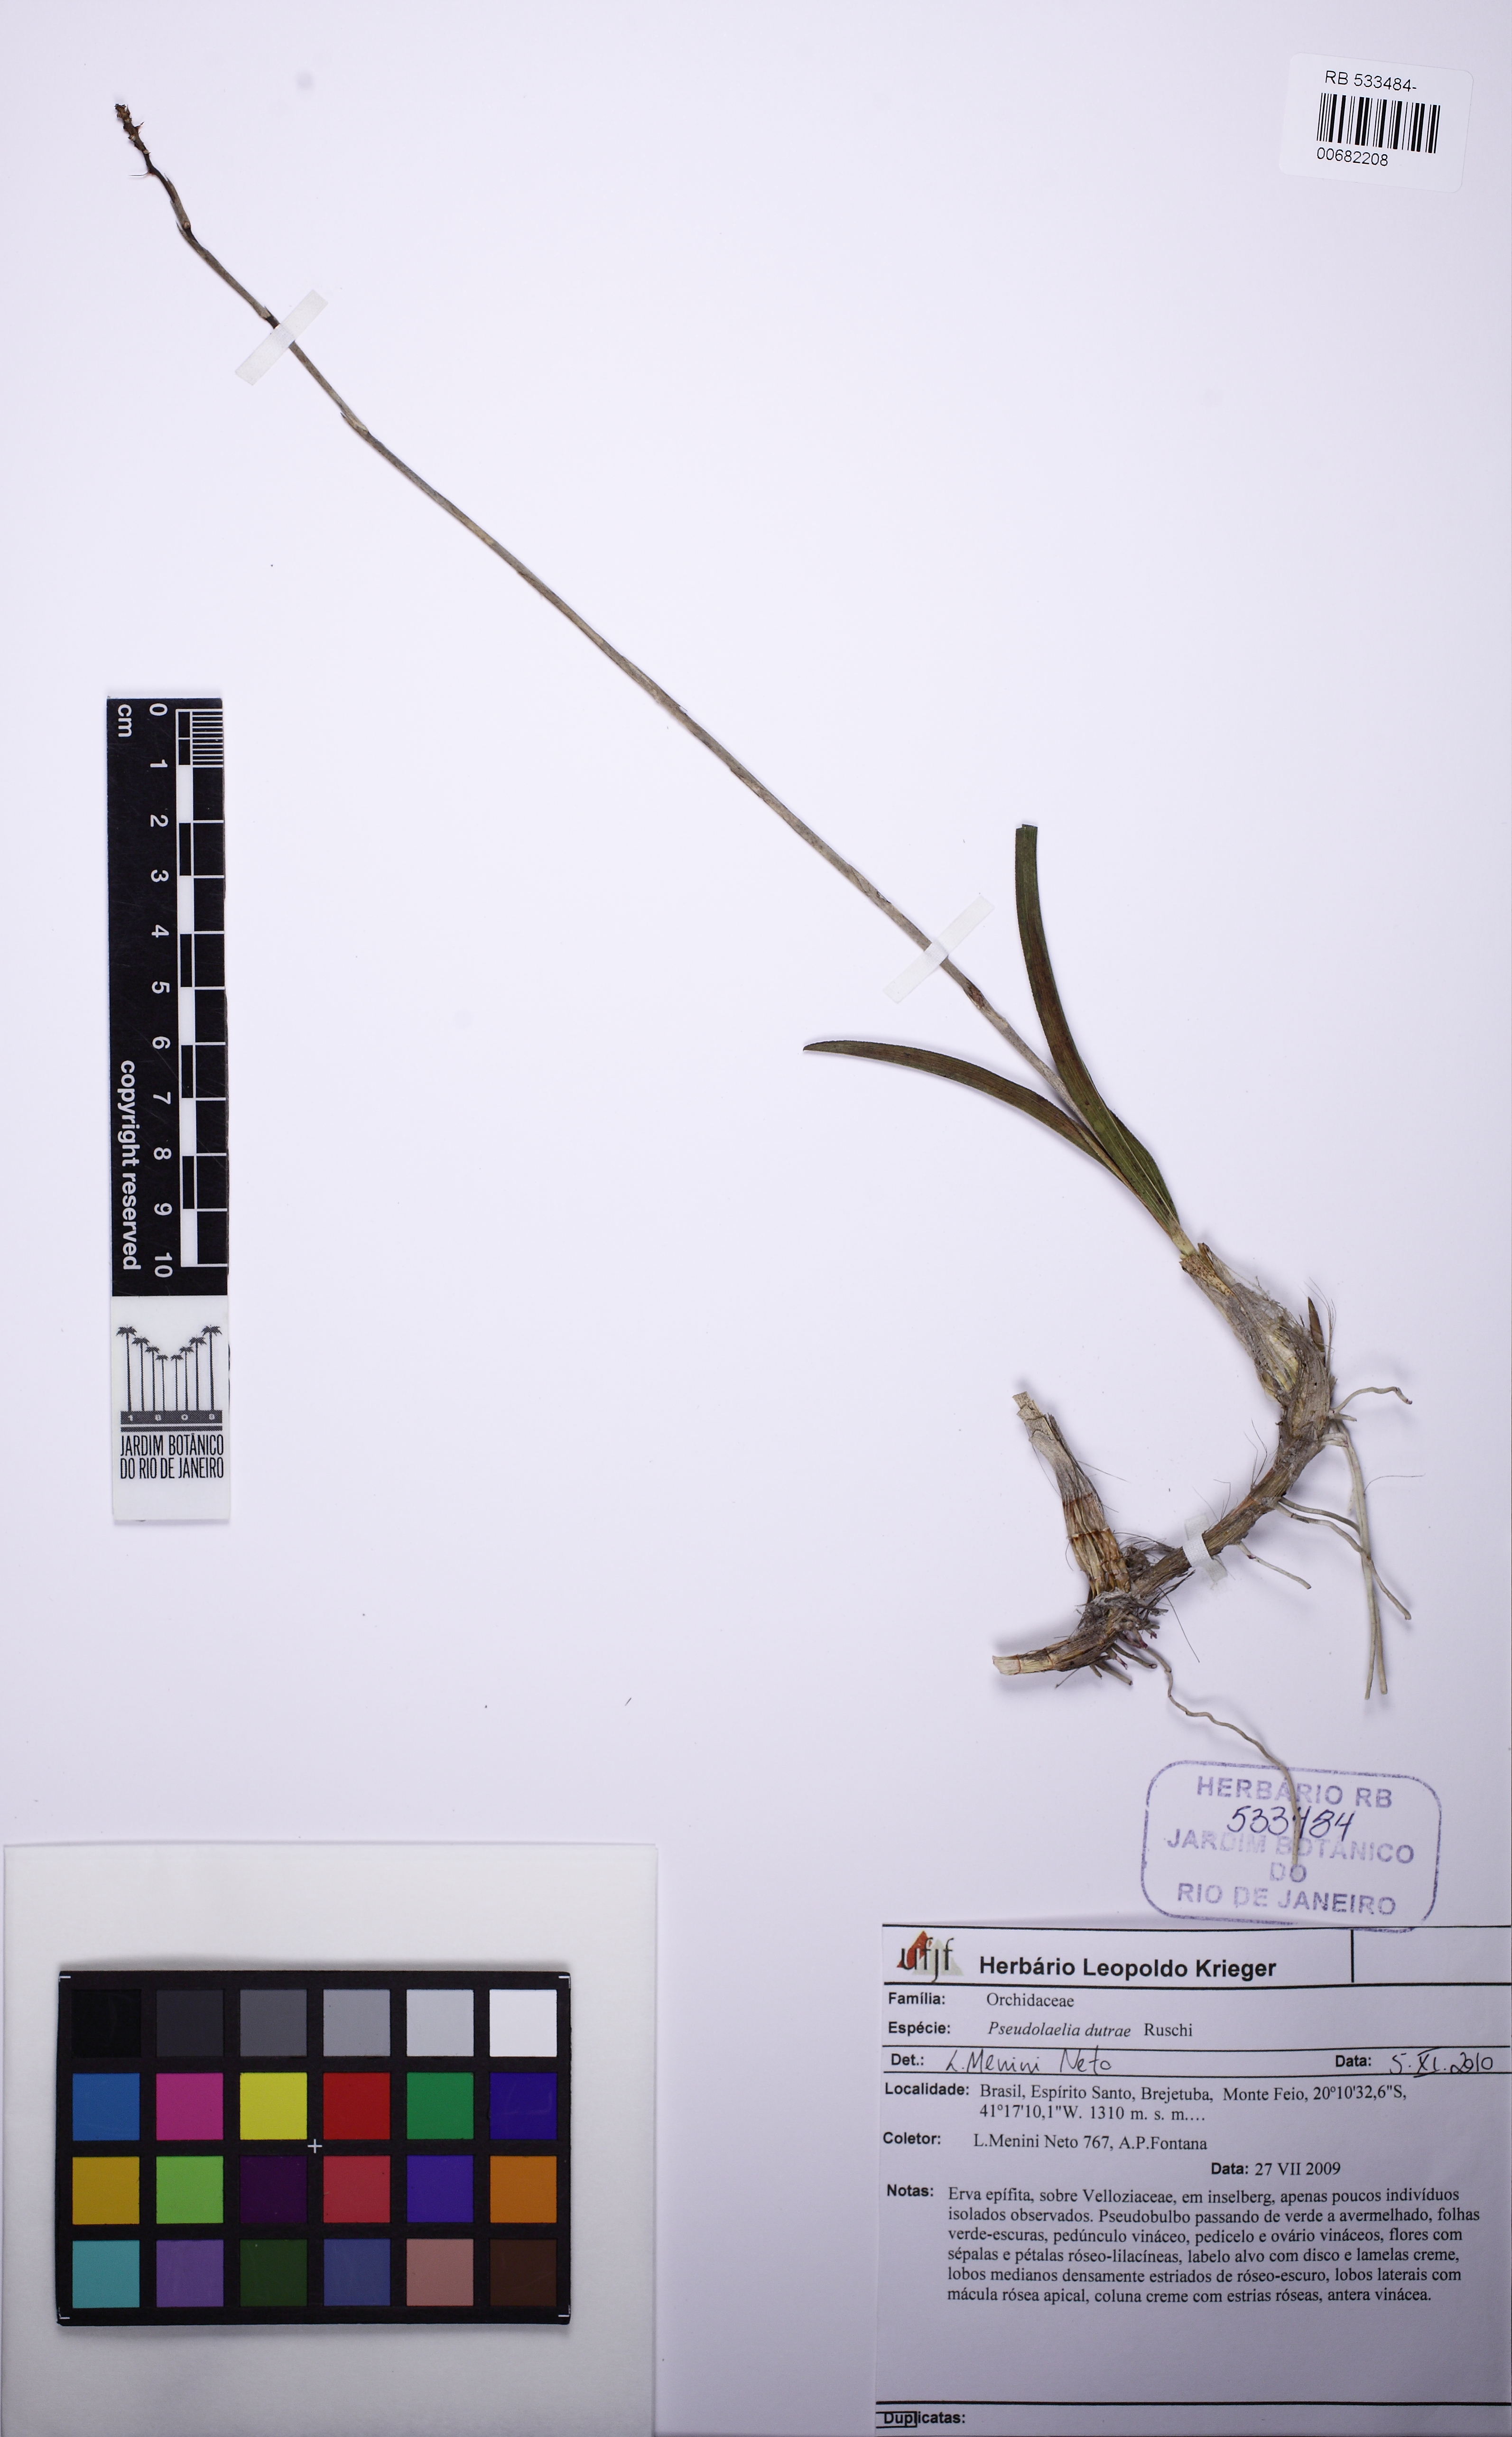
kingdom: Plantae
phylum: Tracheophyta
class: Liliopsida
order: Asparagales
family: Orchidaceae
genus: Pseudolaelia
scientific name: Pseudolaelia dutrae
